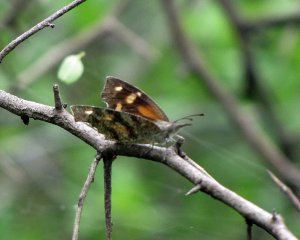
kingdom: Animalia
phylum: Arthropoda
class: Insecta
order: Lepidoptera
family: Nymphalidae
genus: Libytheana
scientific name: Libytheana carinenta
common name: American Snout
